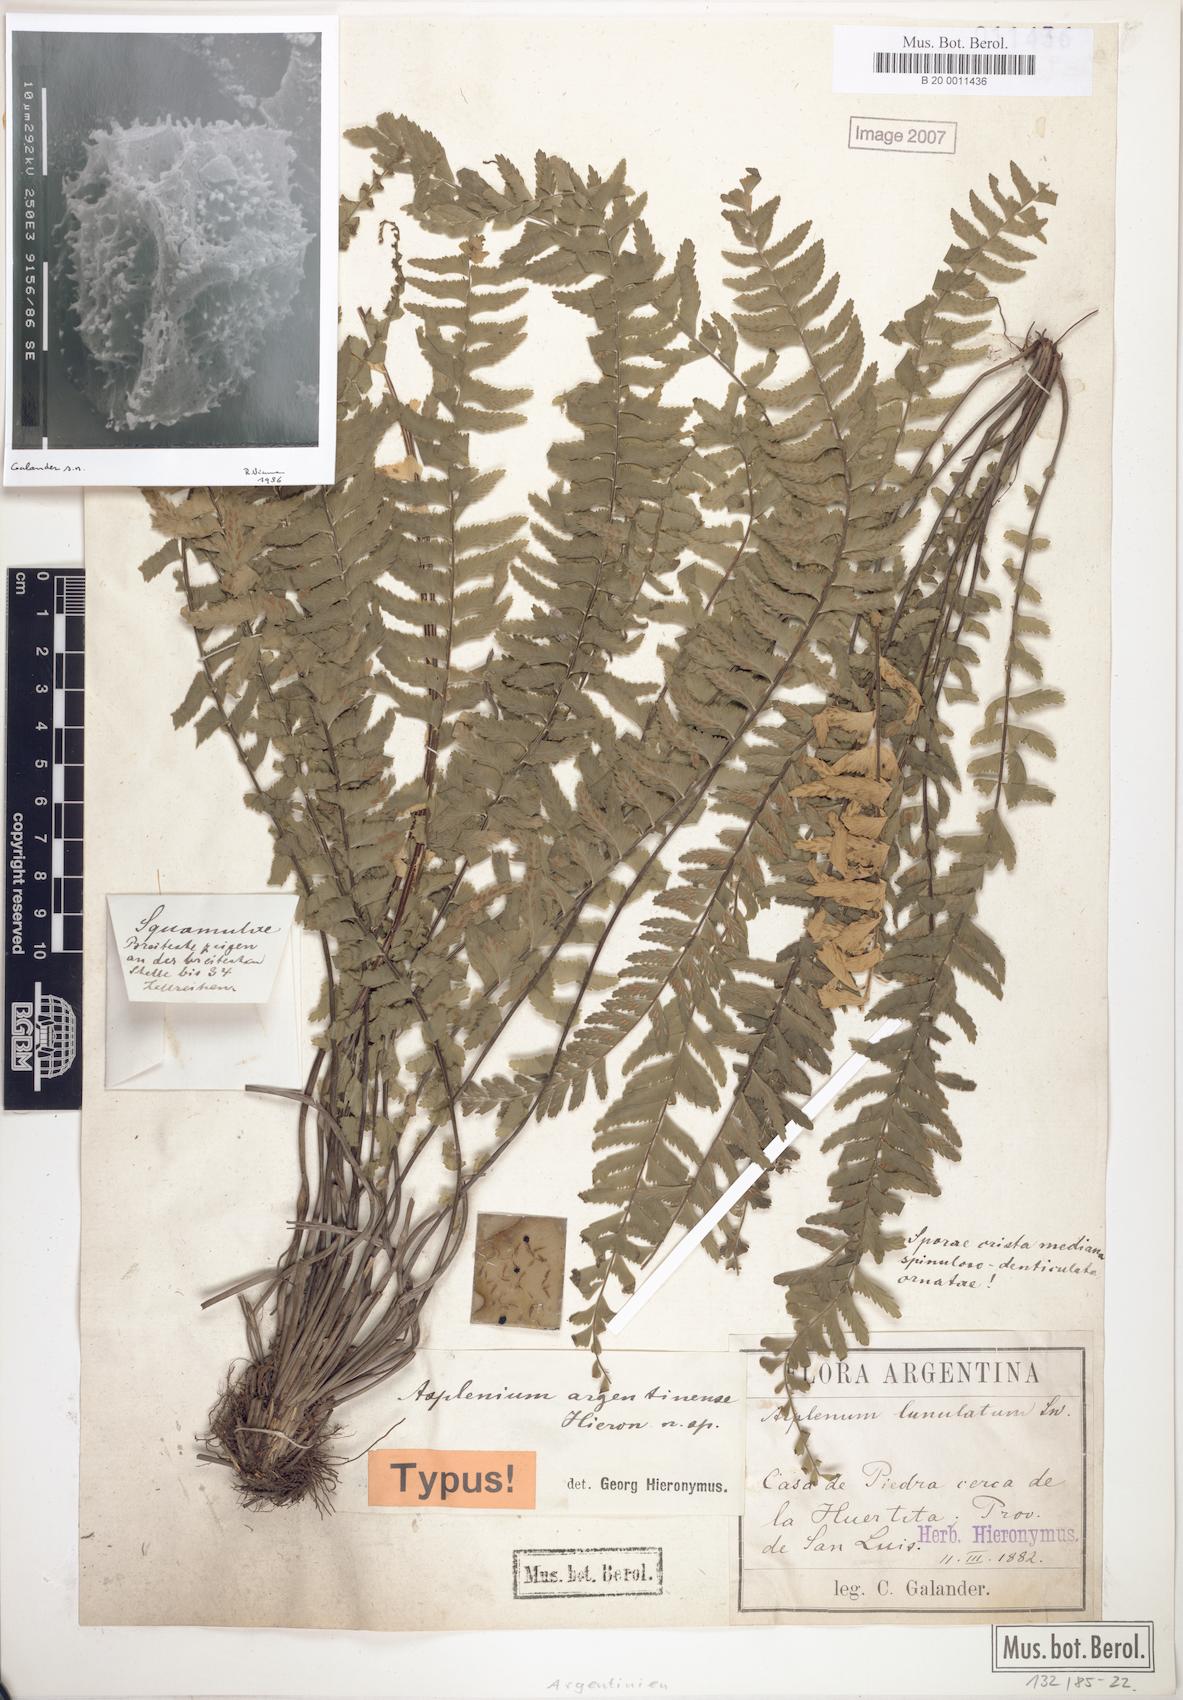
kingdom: Plantae
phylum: Tracheophyta
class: Polypodiopsida
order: Polypodiales
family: Aspleniaceae
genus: Asplenium
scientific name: Asplenium argentinum
